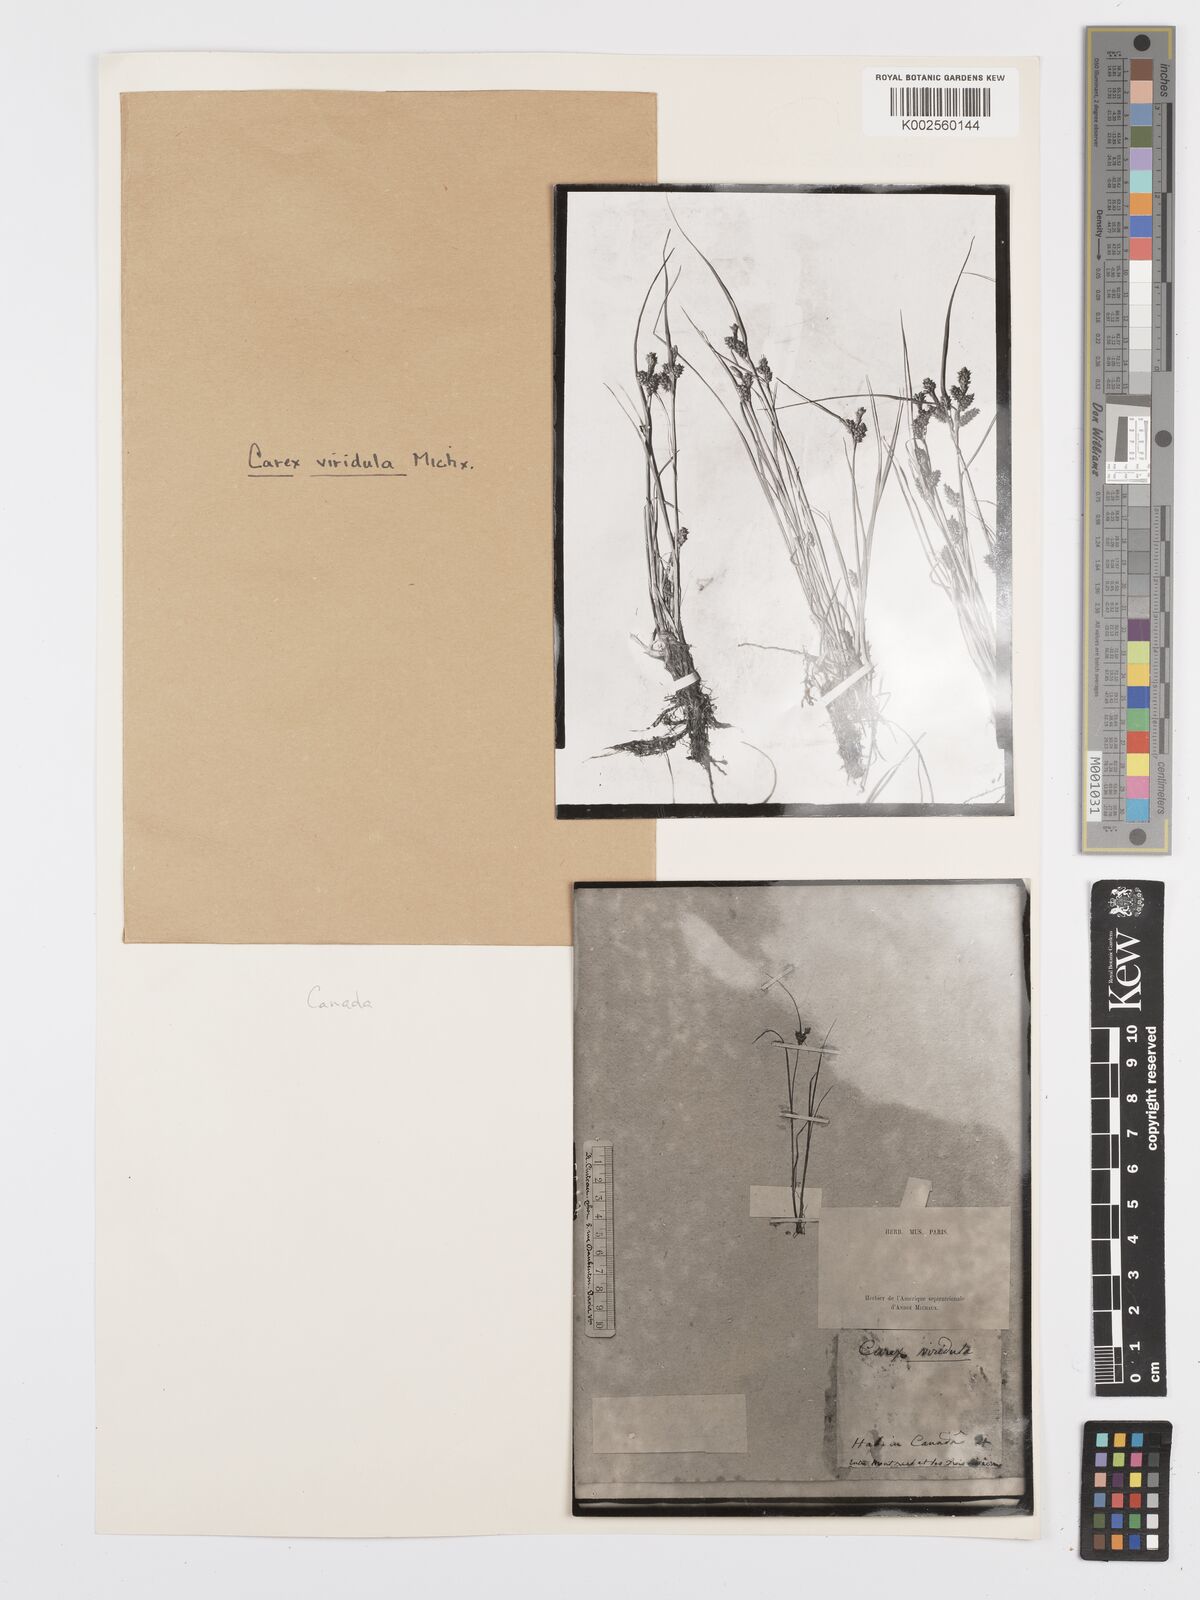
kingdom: Plantae
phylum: Tracheophyta
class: Liliopsida
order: Poales
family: Cyperaceae
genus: Carex
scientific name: Carex oederi
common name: Common & small-fruited yellow-sedge
